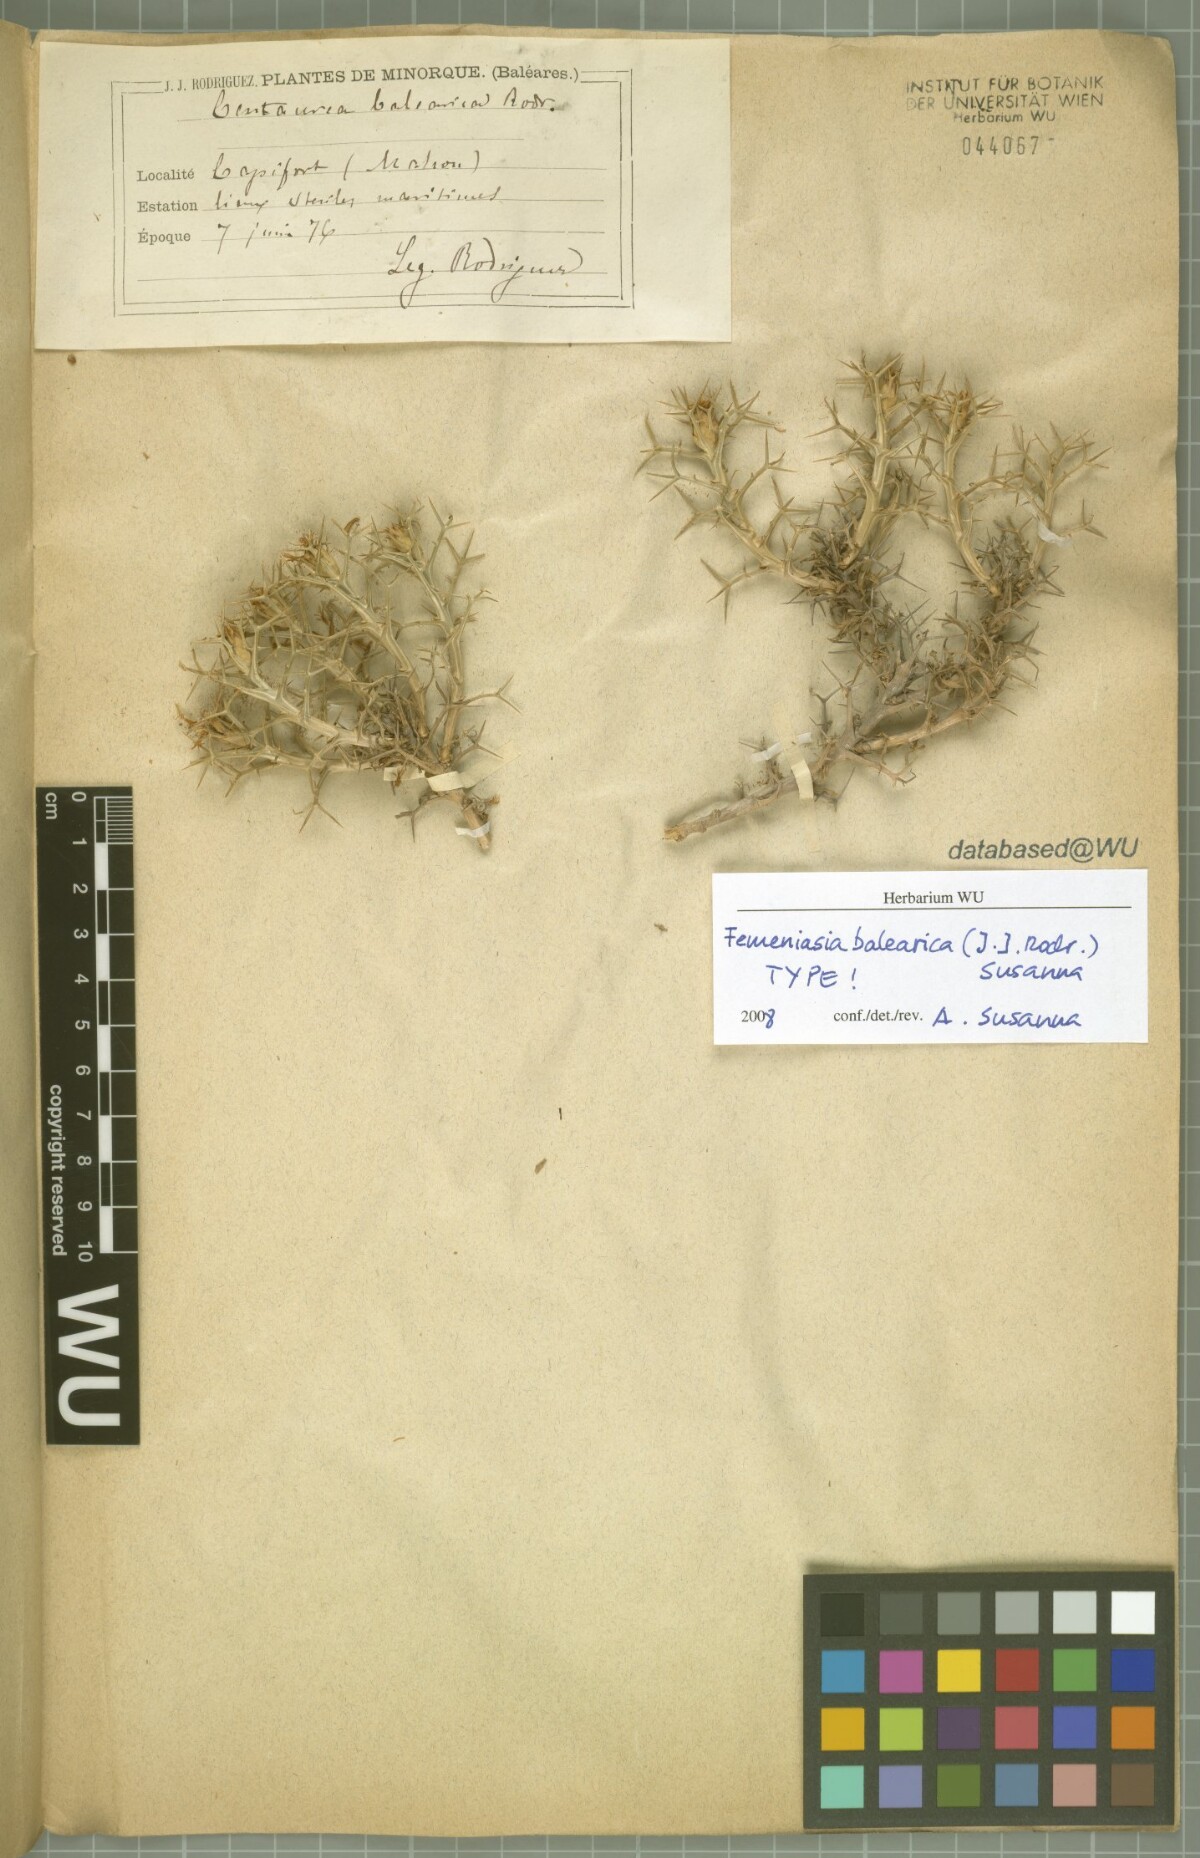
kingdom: Plantae
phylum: Tracheophyta
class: Magnoliopsida
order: Asterales
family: Asteraceae
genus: Carduncellus
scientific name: Carduncellus balearicus
